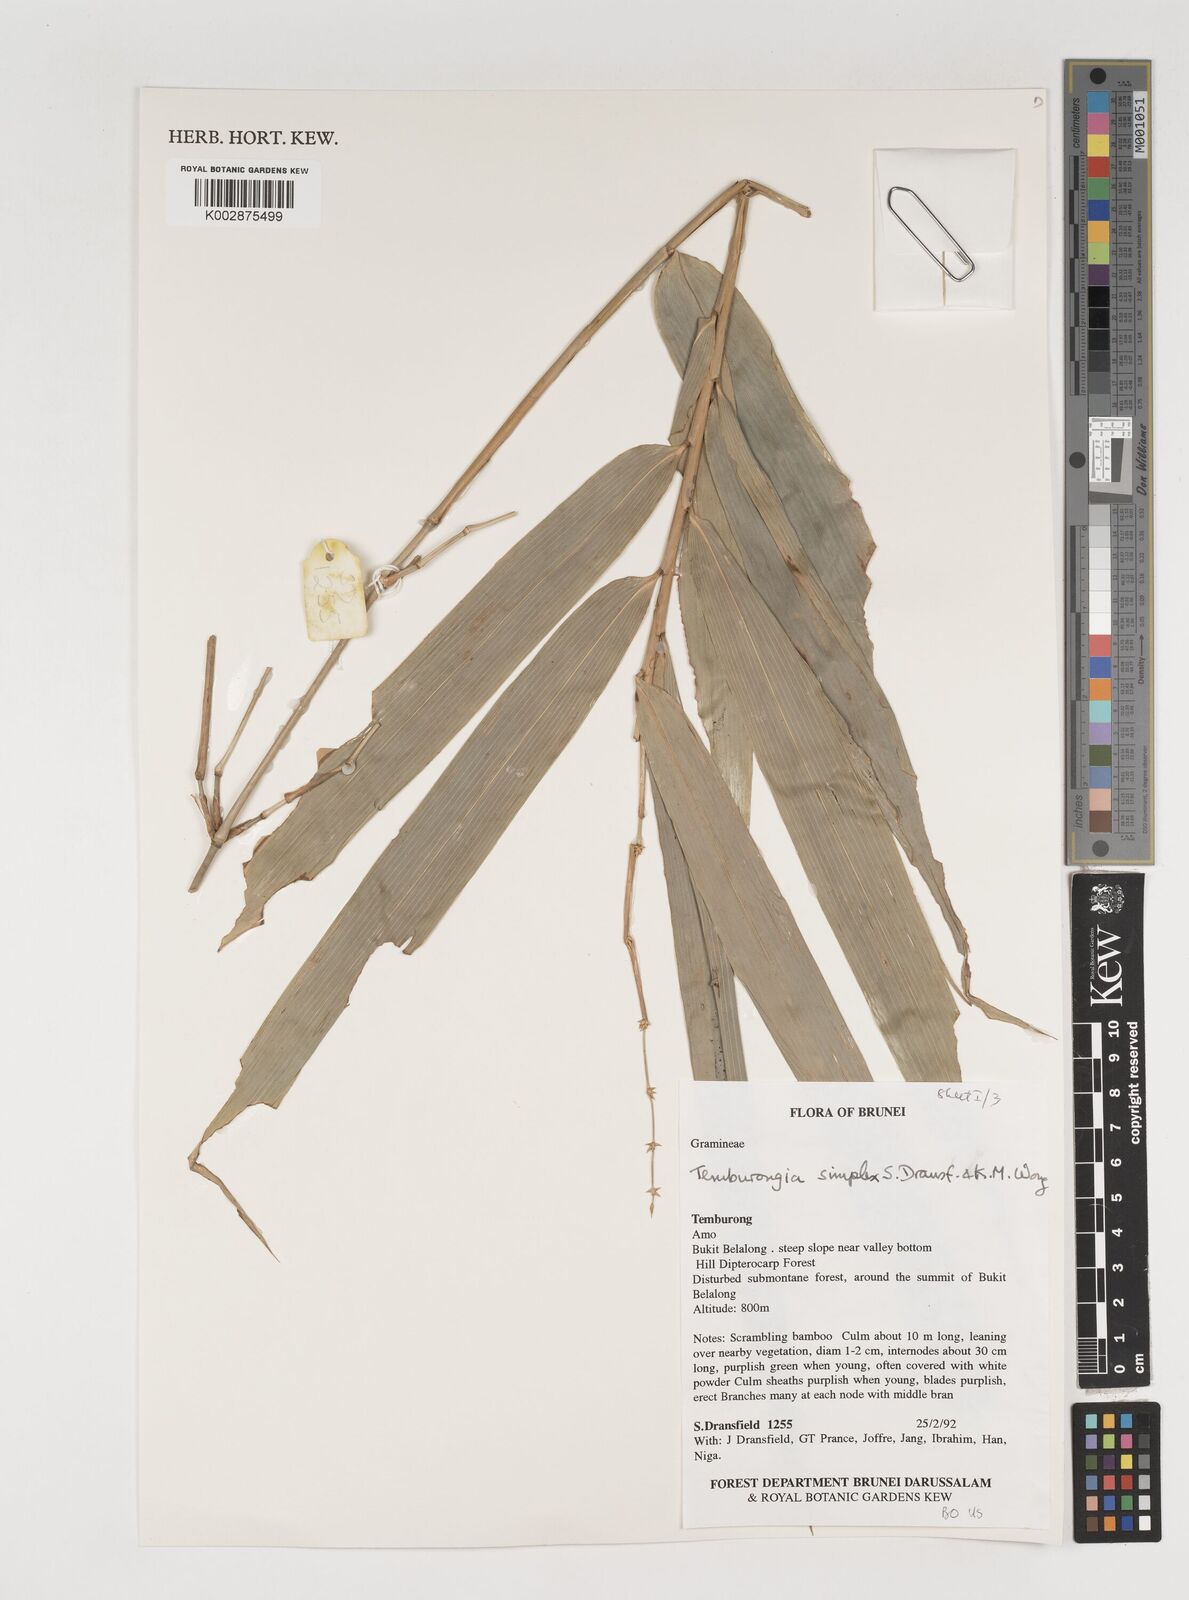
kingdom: Plantae
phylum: Tracheophyta
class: Liliopsida
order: Poales
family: Poaceae
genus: Temburongia
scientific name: Temburongia simplex
